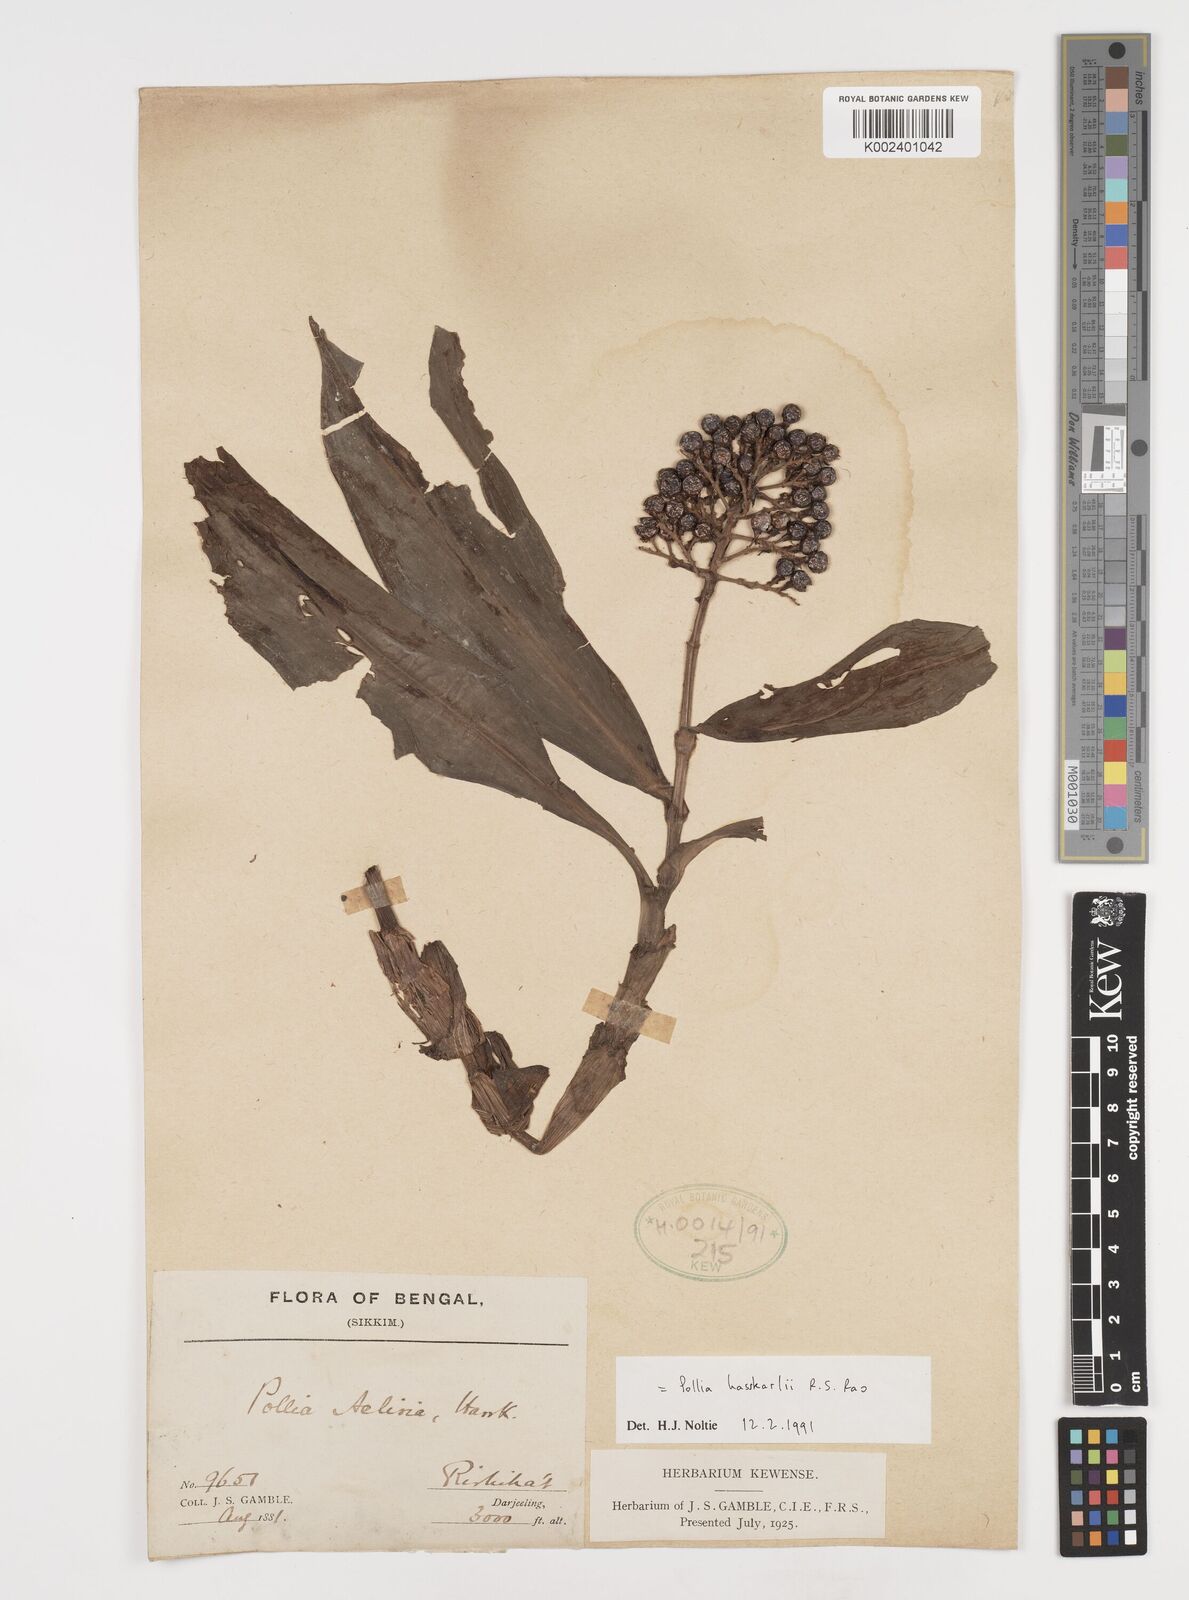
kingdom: Plantae
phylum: Tracheophyta
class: Liliopsida
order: Commelinales
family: Commelinaceae
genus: Pollia
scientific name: Pollia hasskarlii
